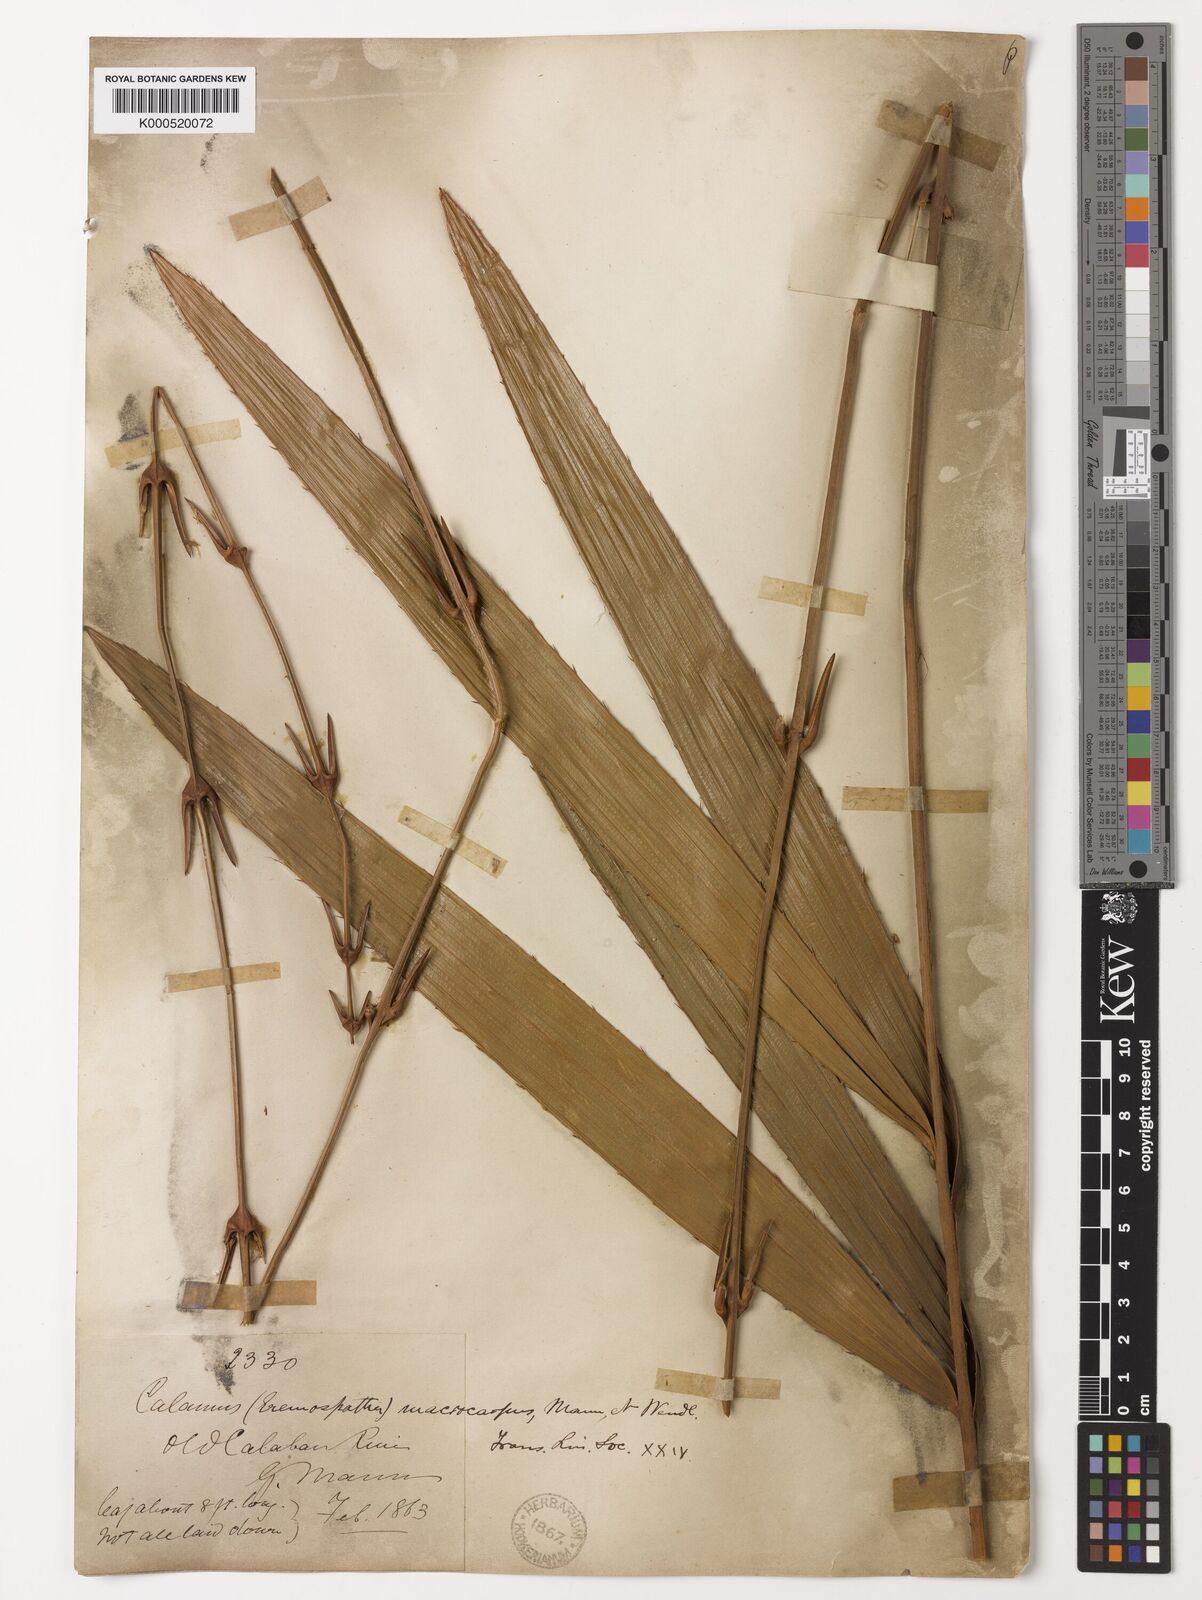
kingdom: Plantae
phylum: Tracheophyta
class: Liliopsida
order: Arecales
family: Arecaceae
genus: Eremospatha
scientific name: Eremospatha
